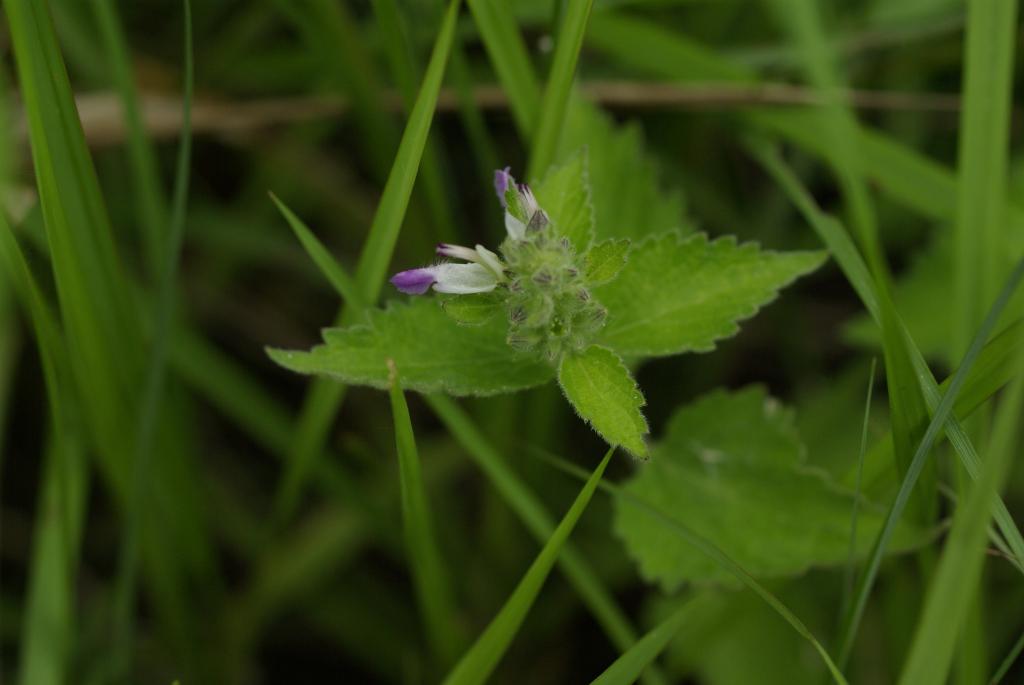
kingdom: Plantae
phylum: Tracheophyta
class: Magnoliopsida
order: Lamiales
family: Lamiaceae
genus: Anisomeles
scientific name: Anisomeles indica
